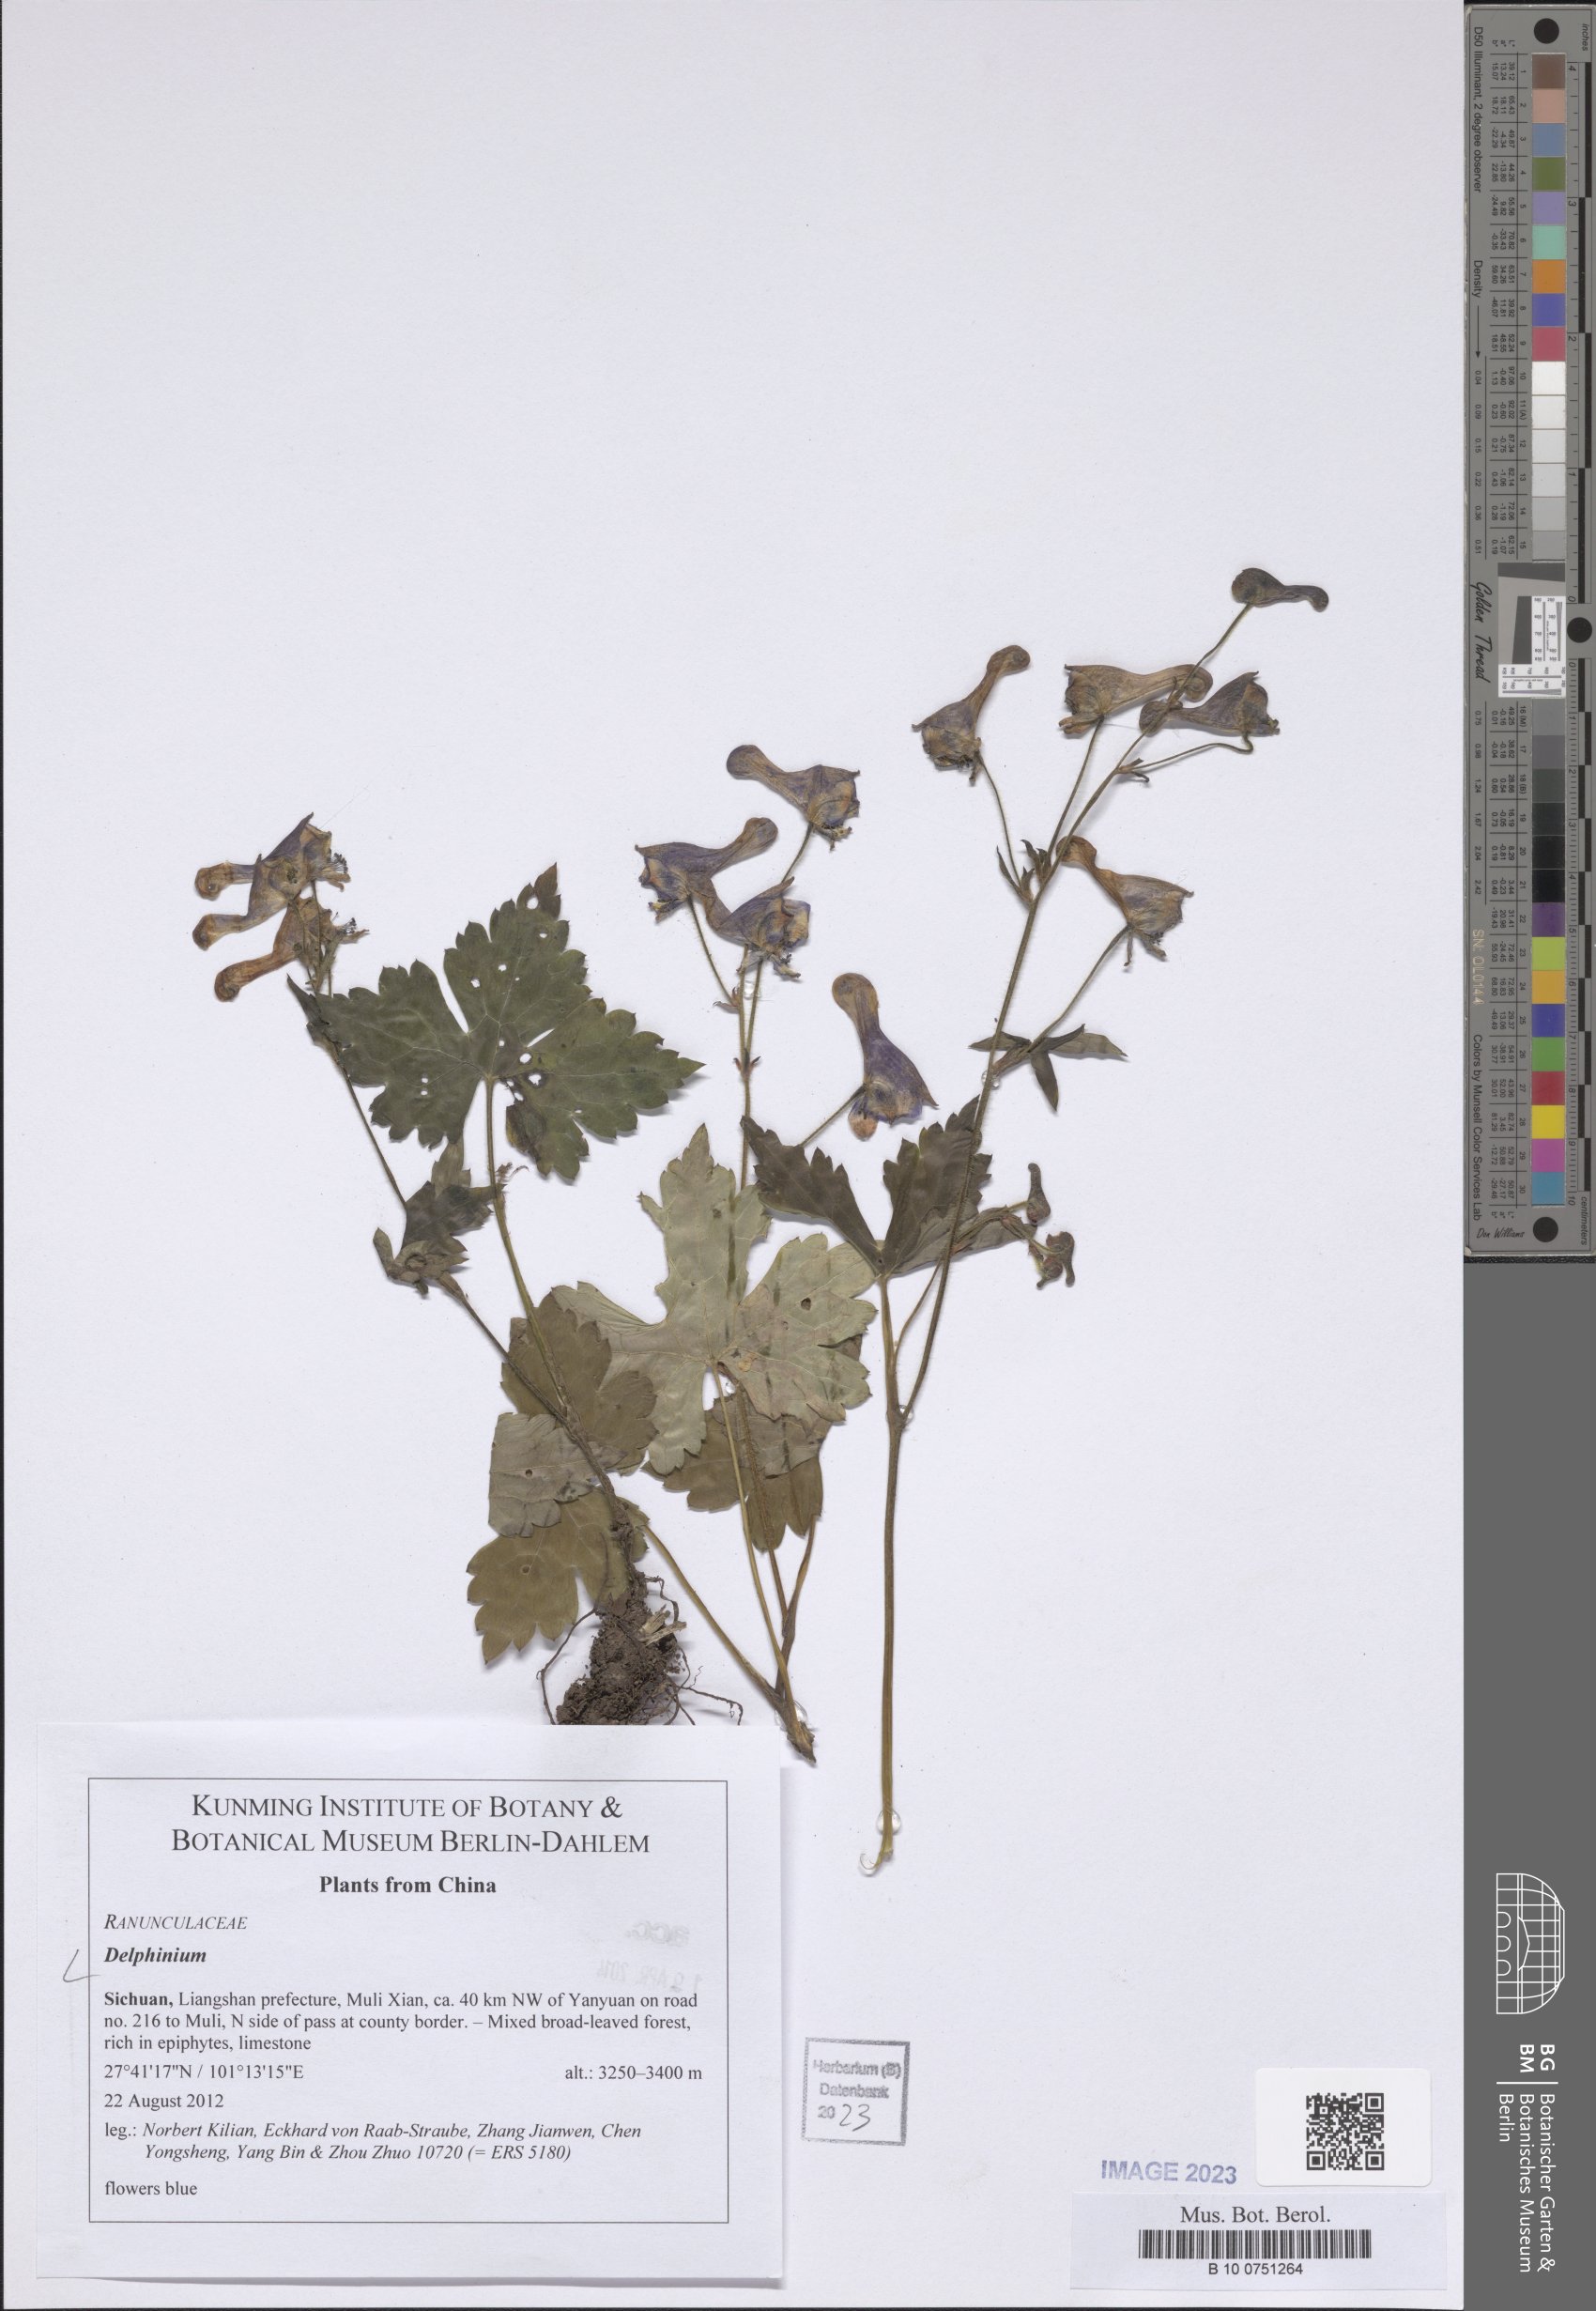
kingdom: Plantae
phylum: Tracheophyta
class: Magnoliopsida
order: Ranunculales
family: Ranunculaceae
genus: Delphinium
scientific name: Delphinium
